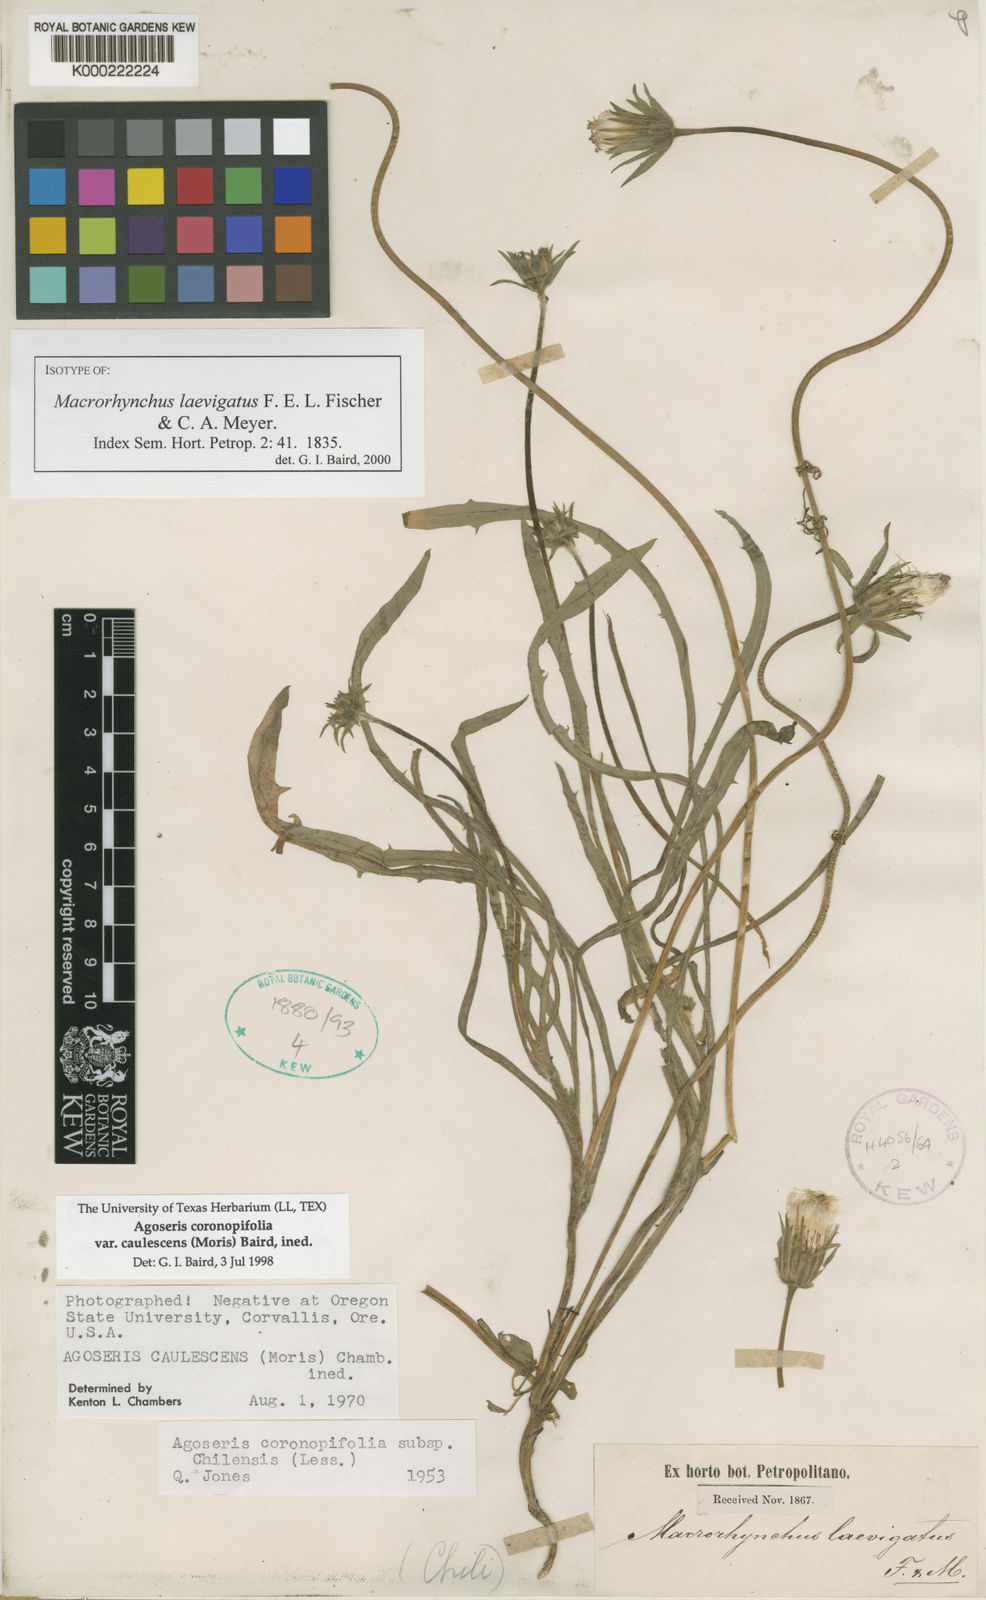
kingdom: Plantae
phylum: Tracheophyta
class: Magnoliopsida
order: Asterales
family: Asteraceae
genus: Agoseris
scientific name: Agoseris
